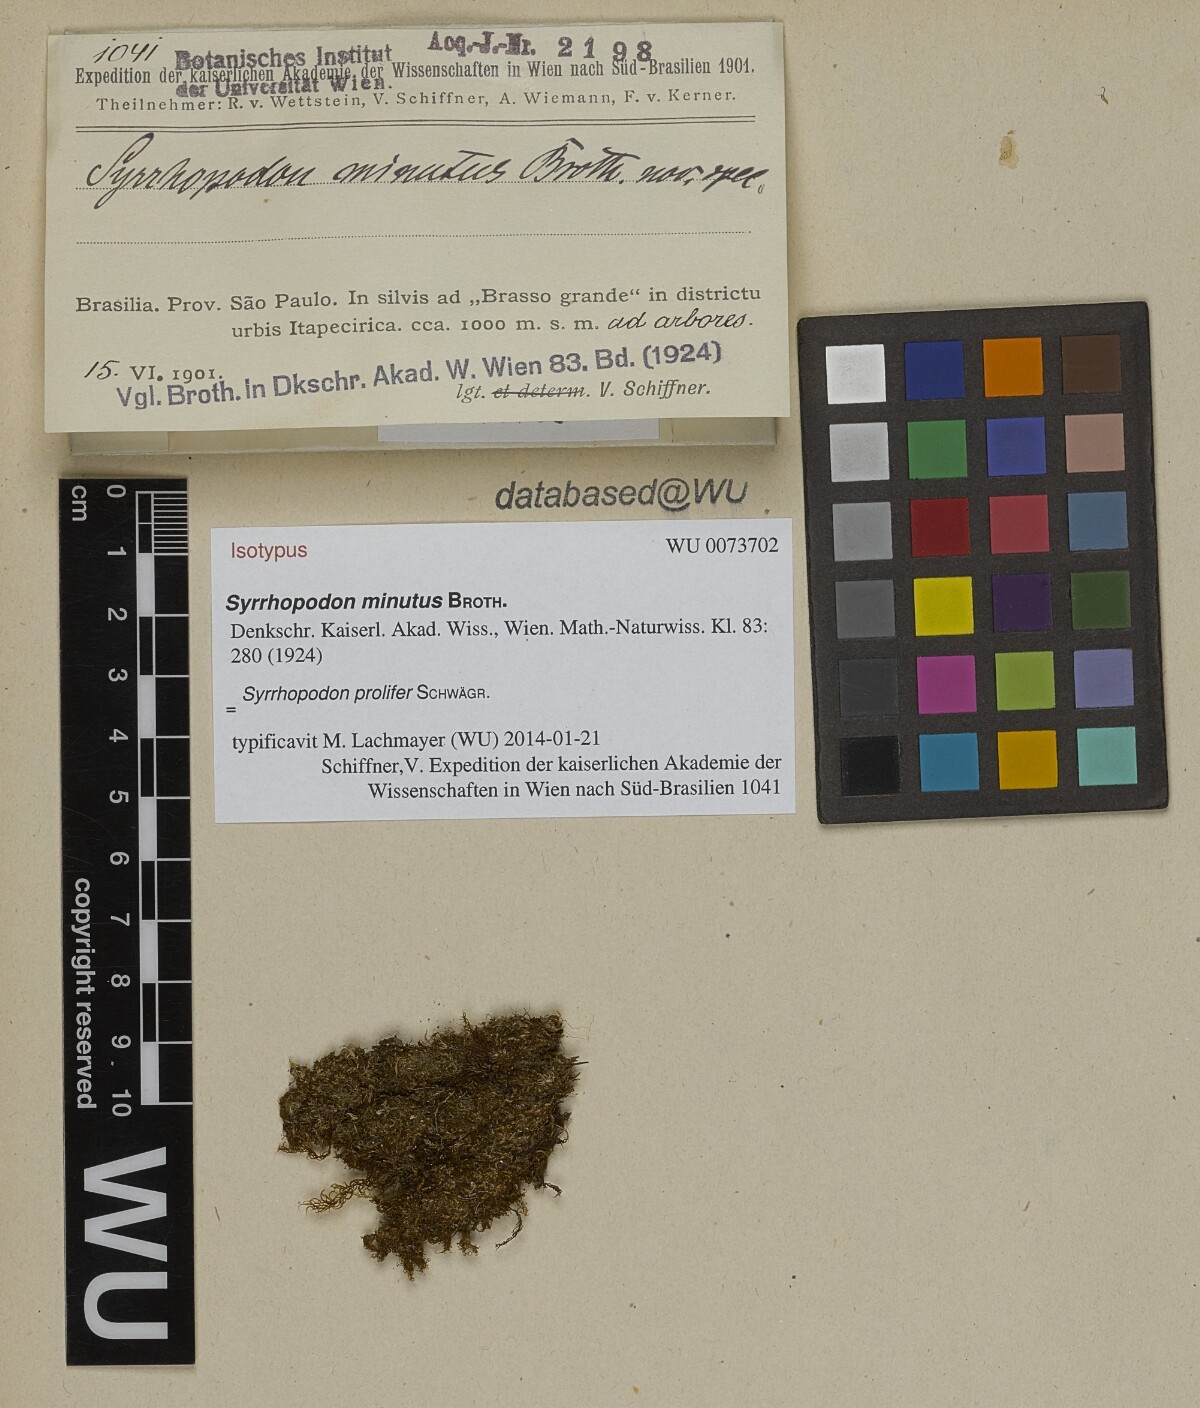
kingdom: Plantae
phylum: Bryophyta
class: Bryopsida
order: Dicranales
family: Calymperaceae
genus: Syrrhopodon
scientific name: Syrrhopodon prolifer
